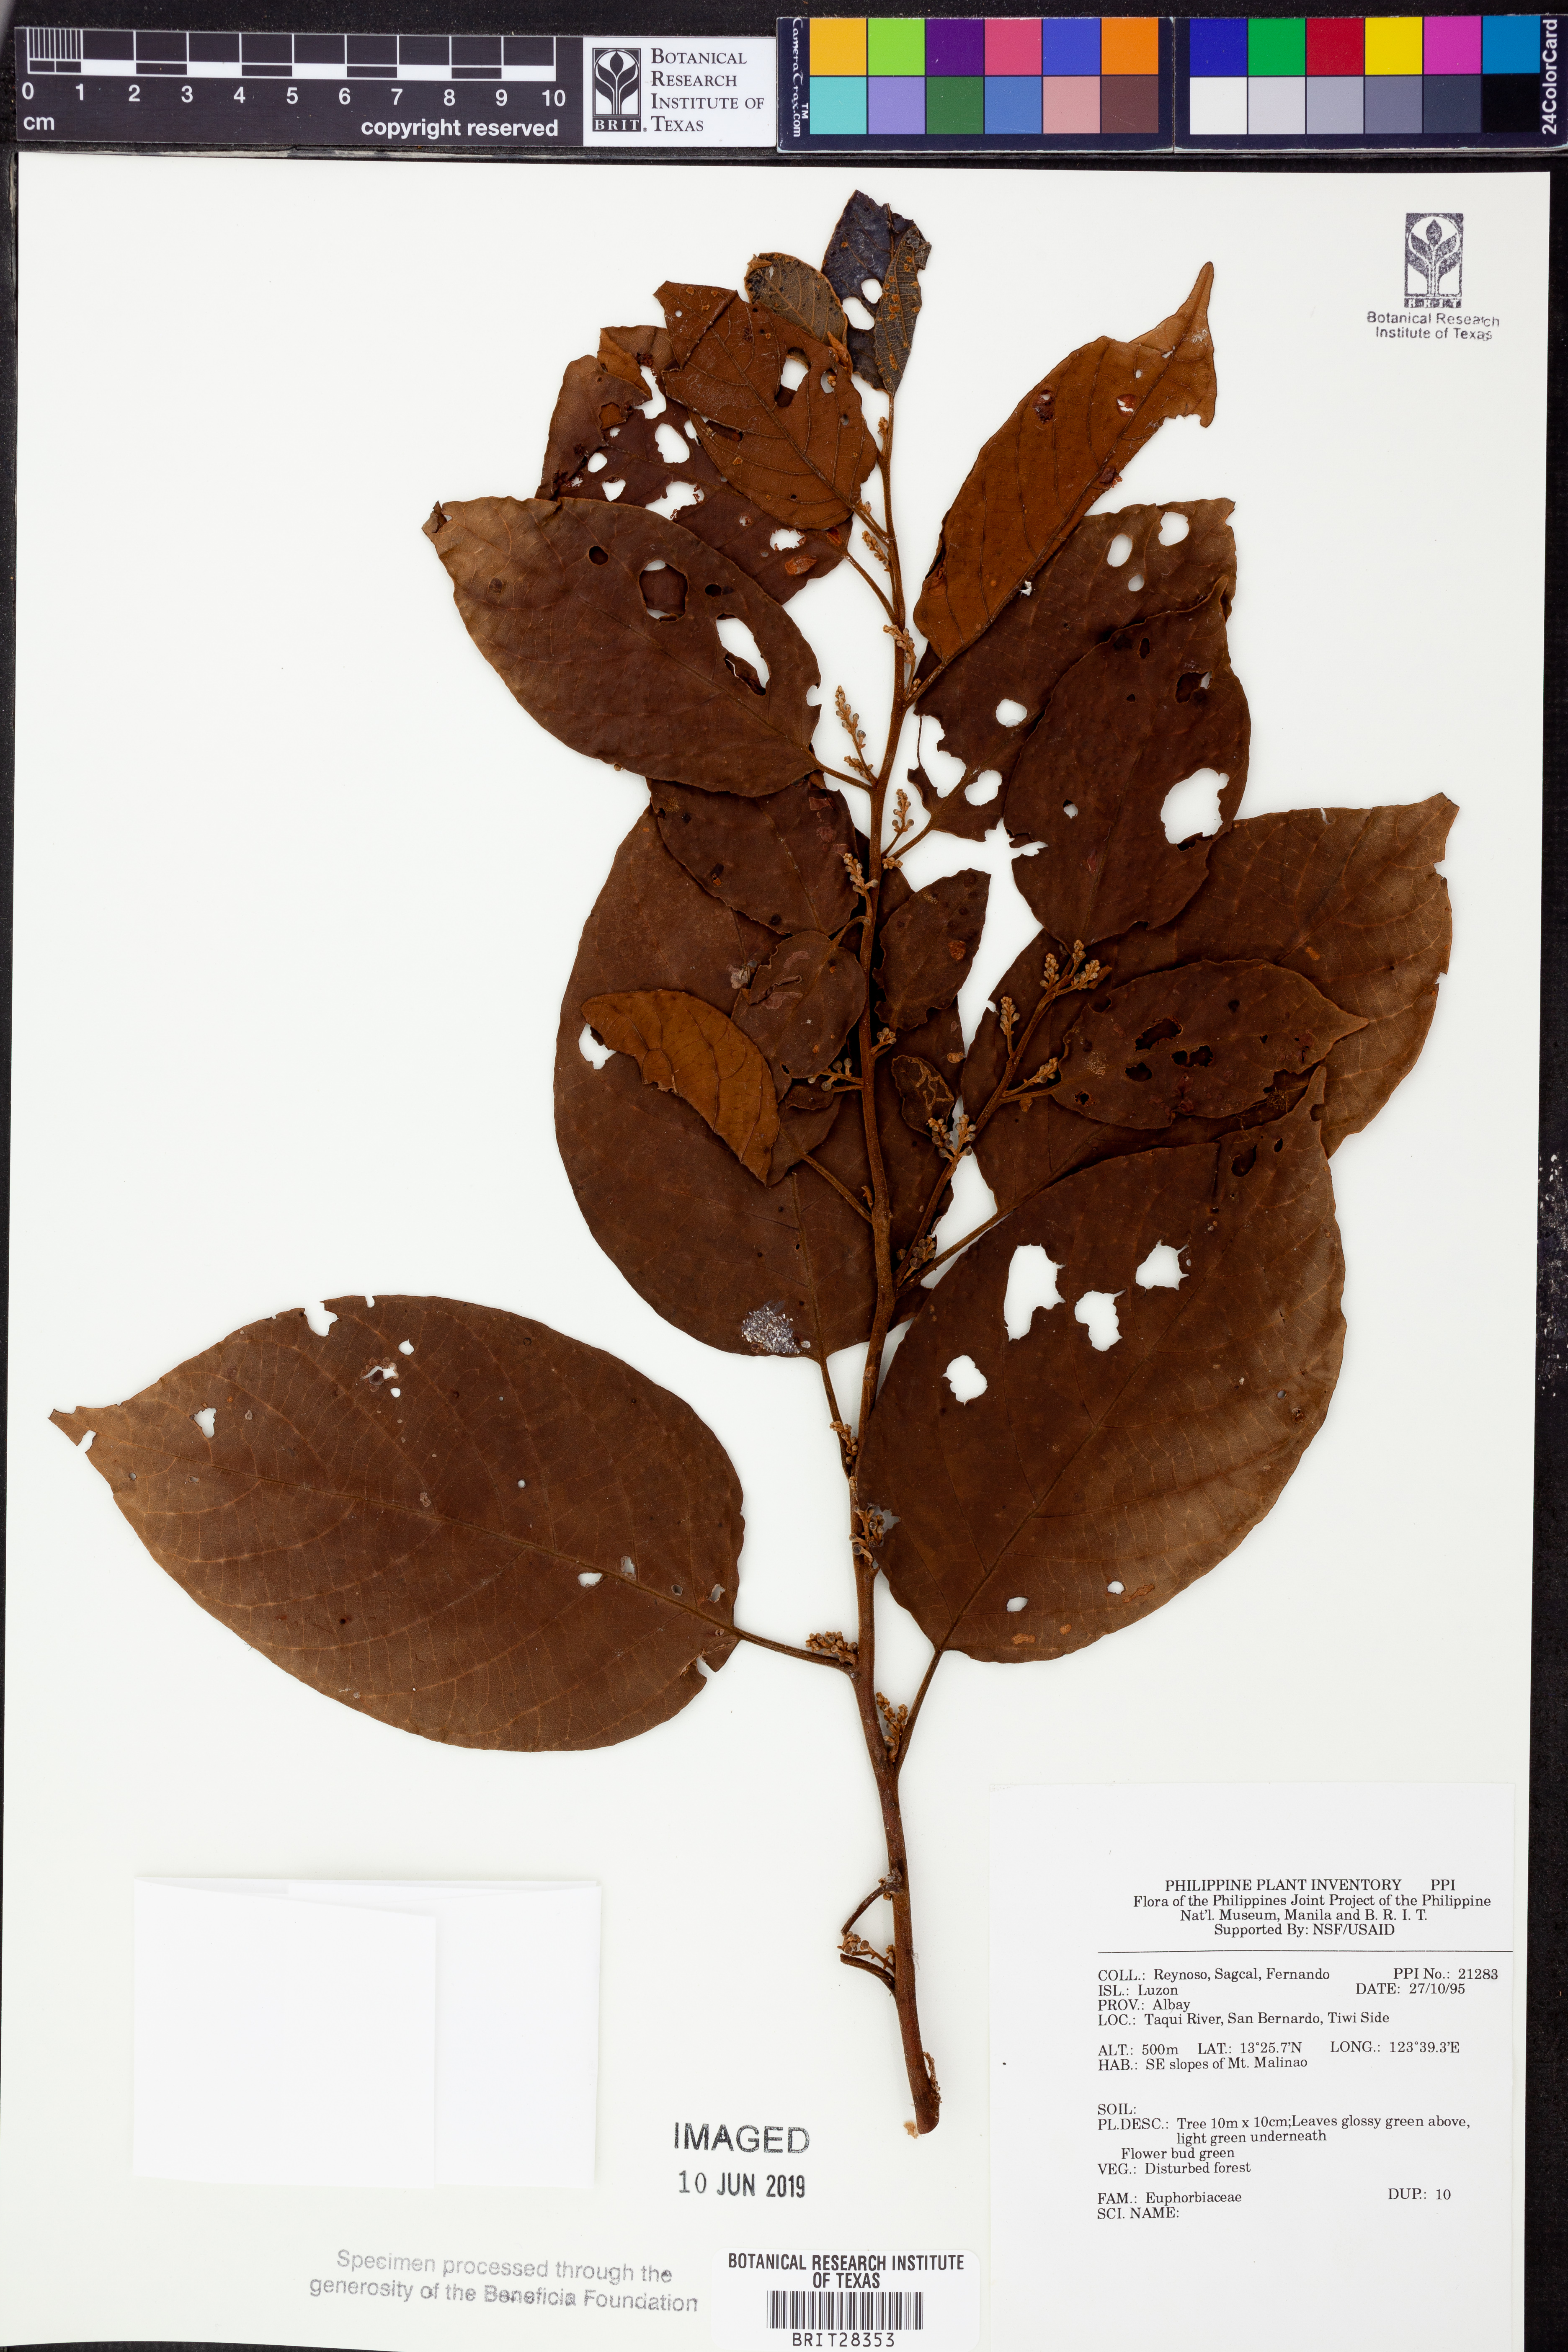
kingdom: Plantae
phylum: Tracheophyta
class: Magnoliopsida
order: Malpighiales
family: Euphorbiaceae
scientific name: Euphorbiaceae
